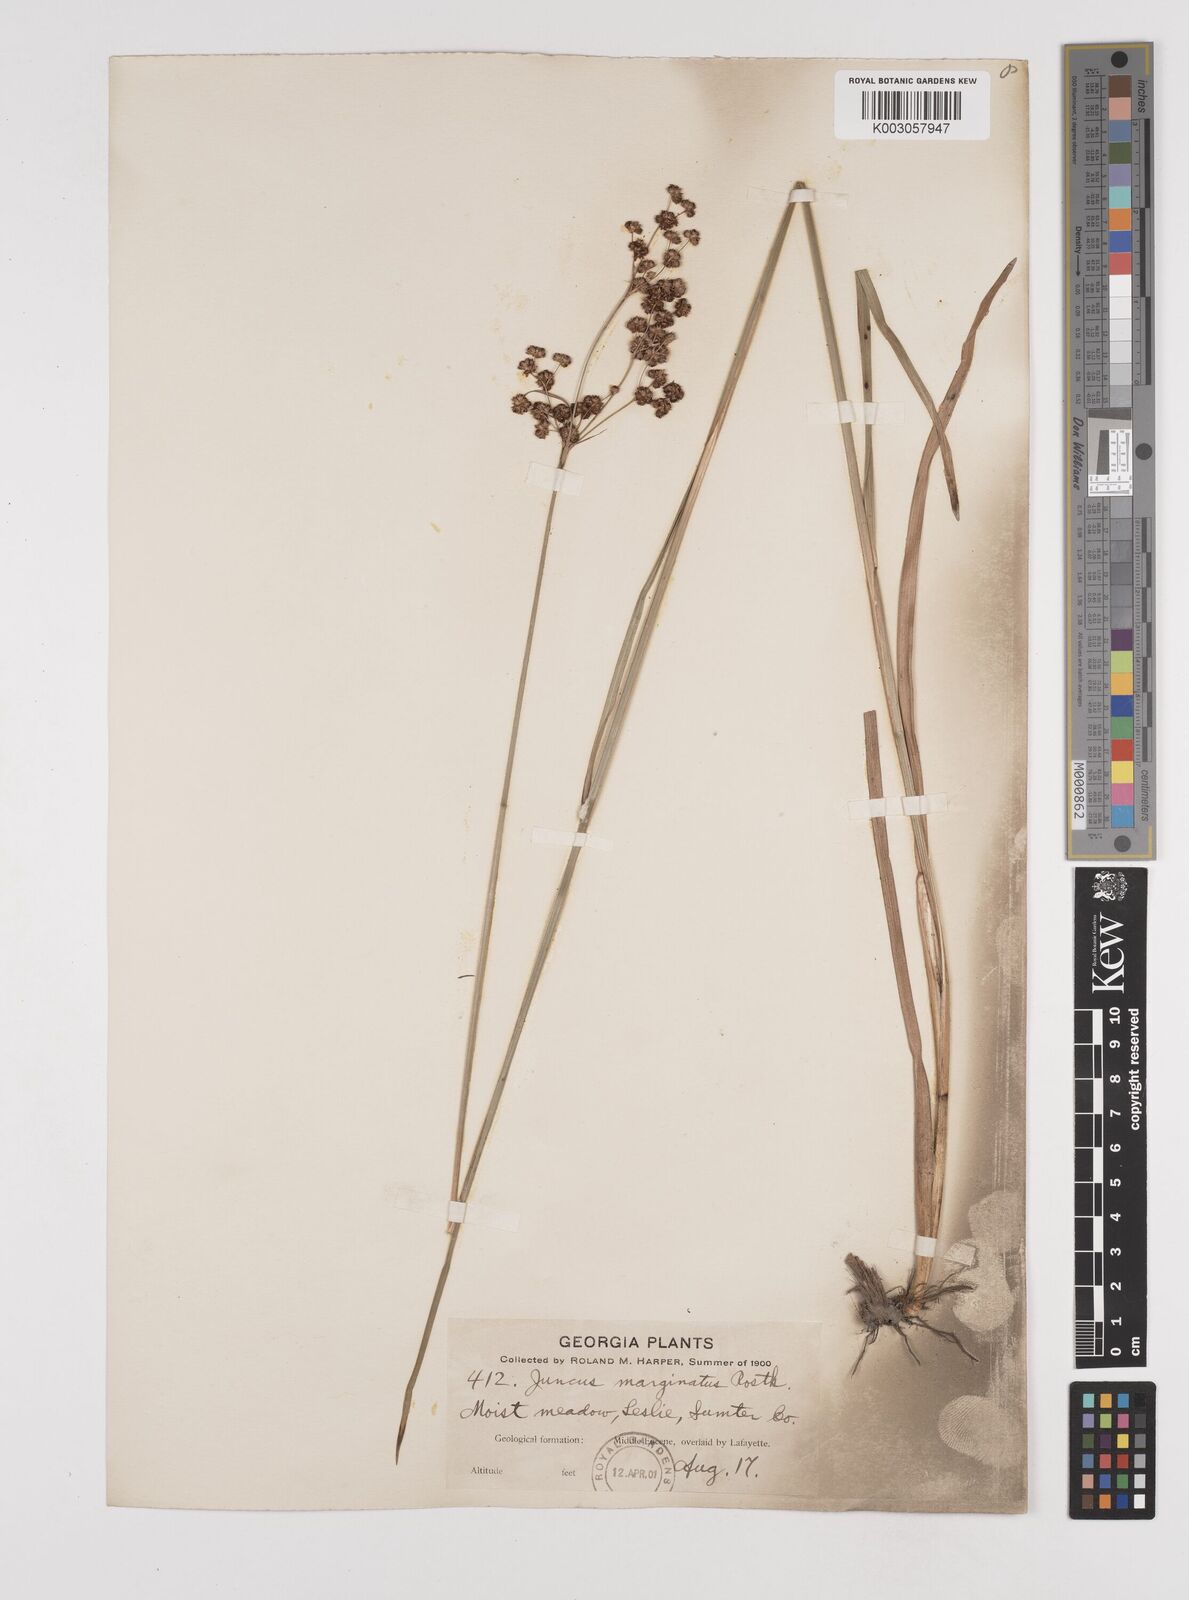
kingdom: Plantae
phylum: Tracheophyta
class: Liliopsida
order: Poales
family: Juncaceae
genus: Juncus
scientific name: Juncus marginatus
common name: Grass-leaf rush
